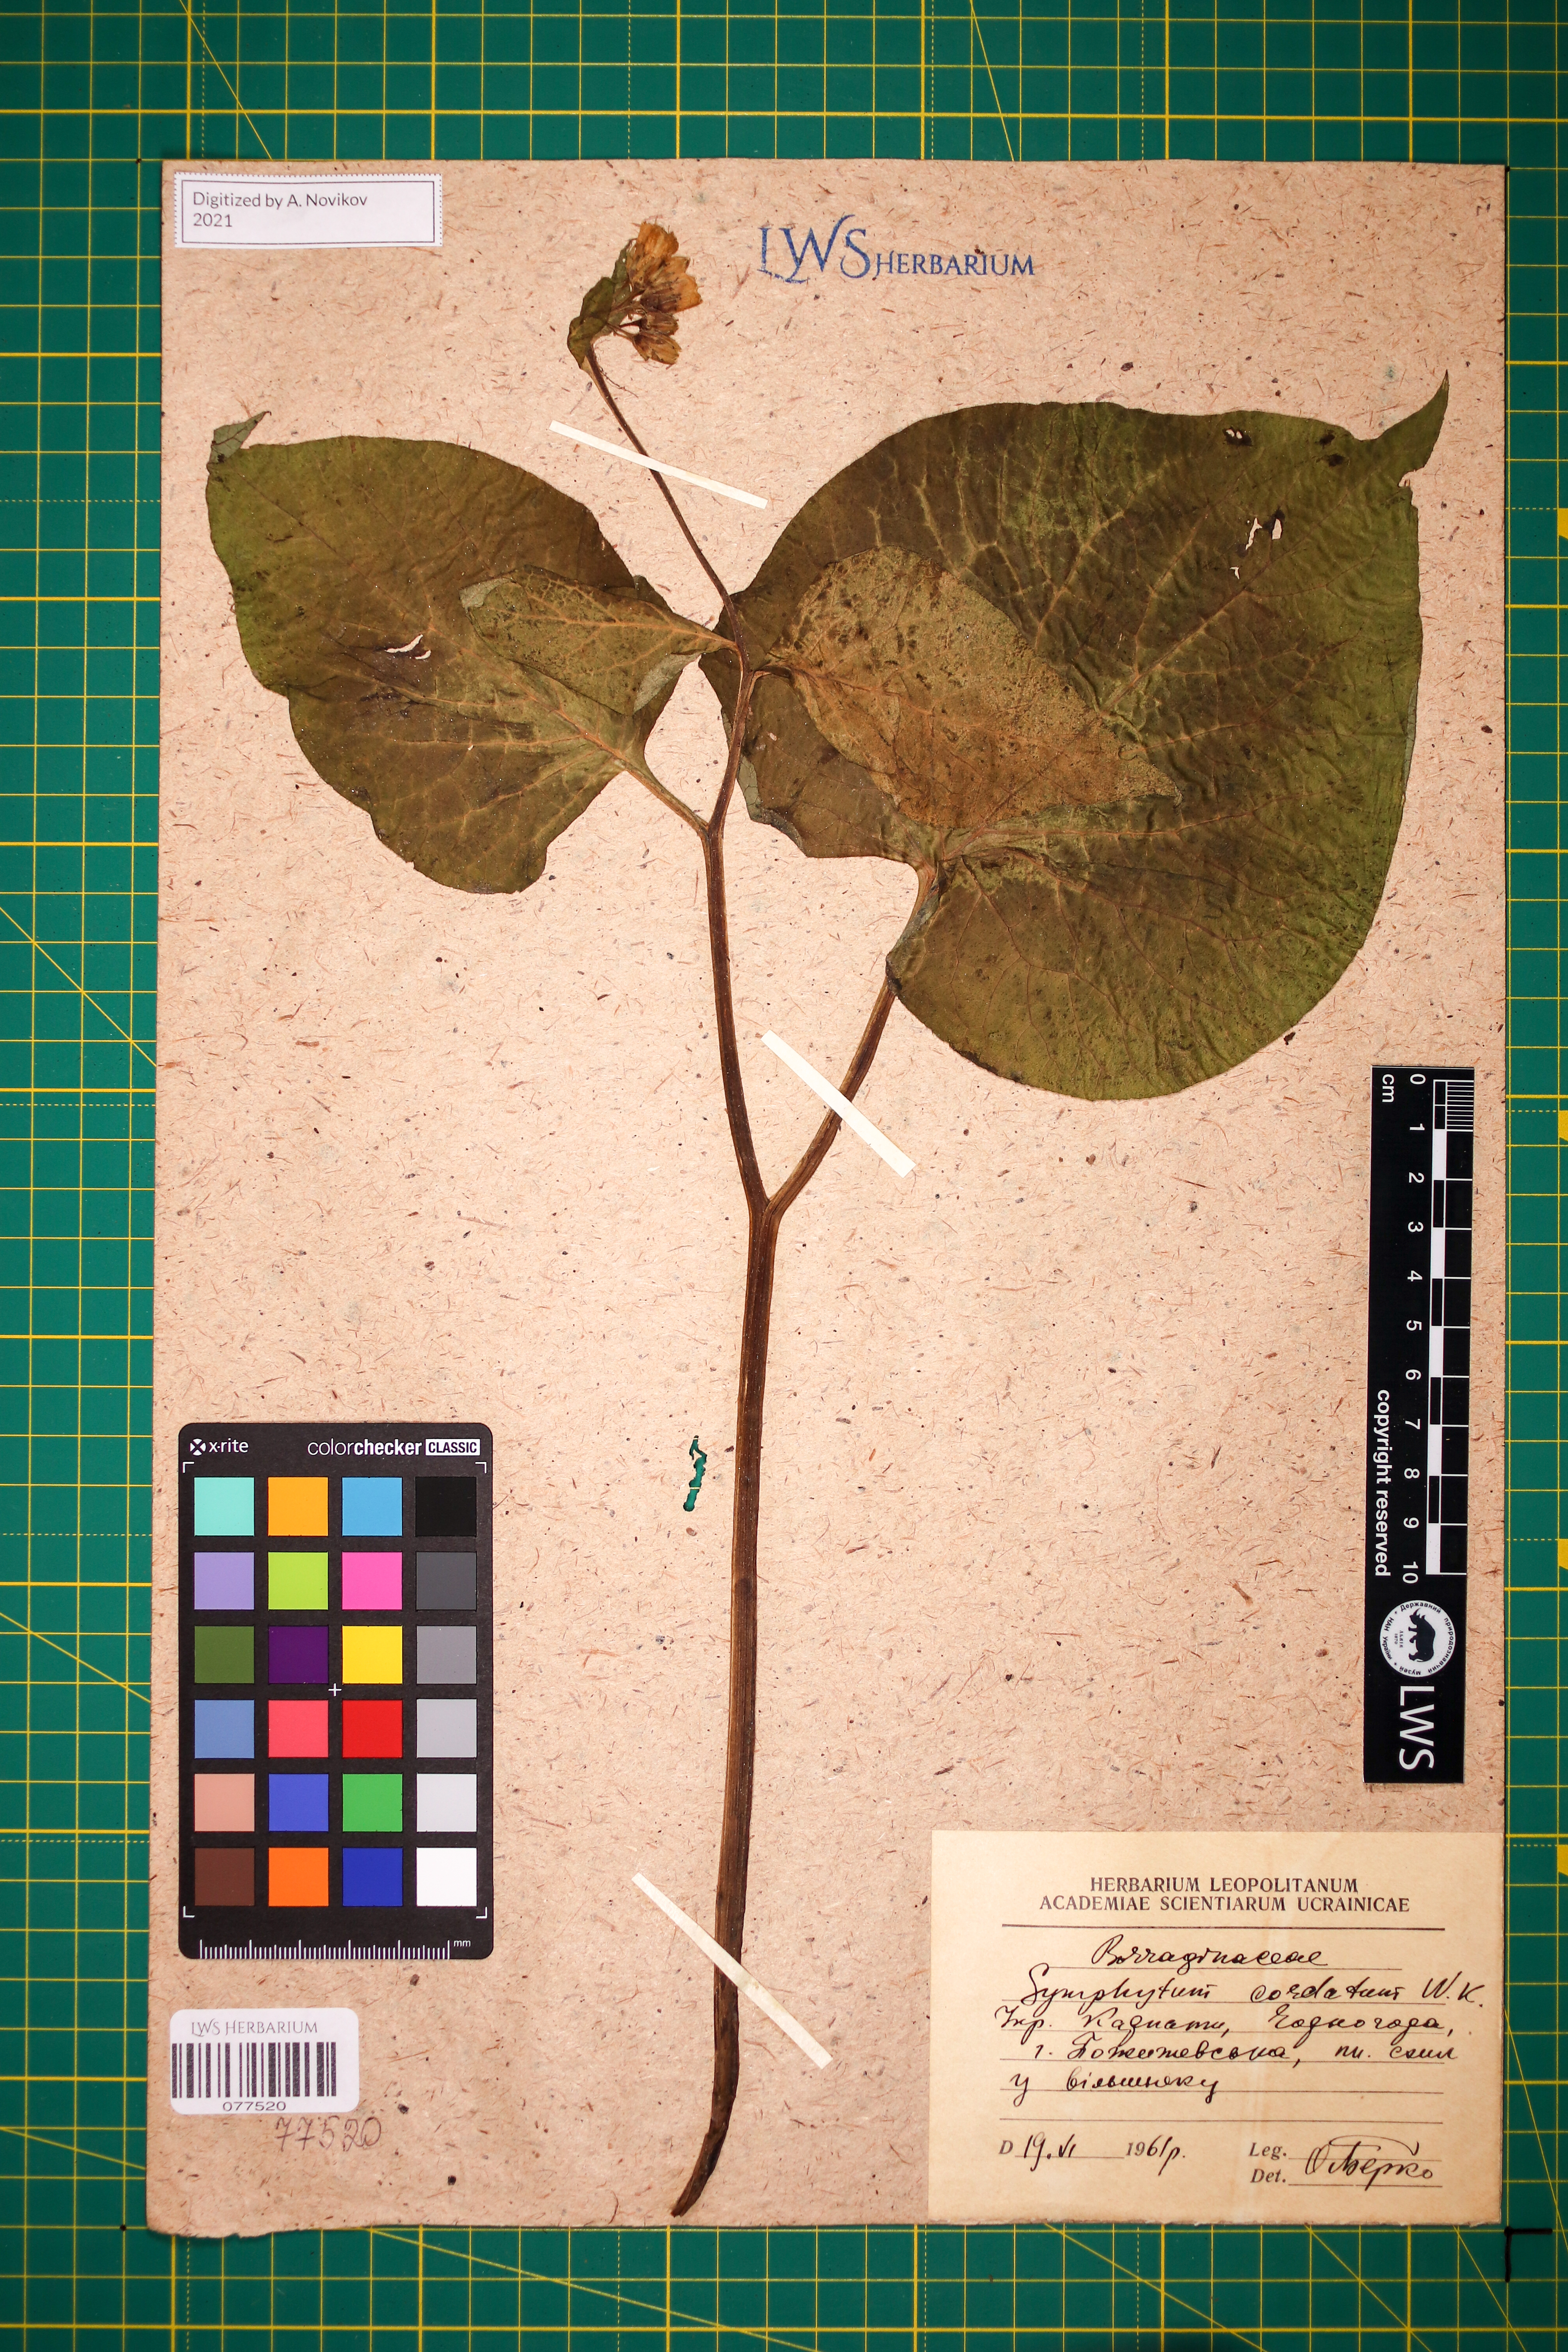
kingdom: Plantae
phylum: Tracheophyta
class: Magnoliopsida
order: Boraginales
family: Boraginaceae
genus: Symphytum
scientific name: Symphytum cordatum
